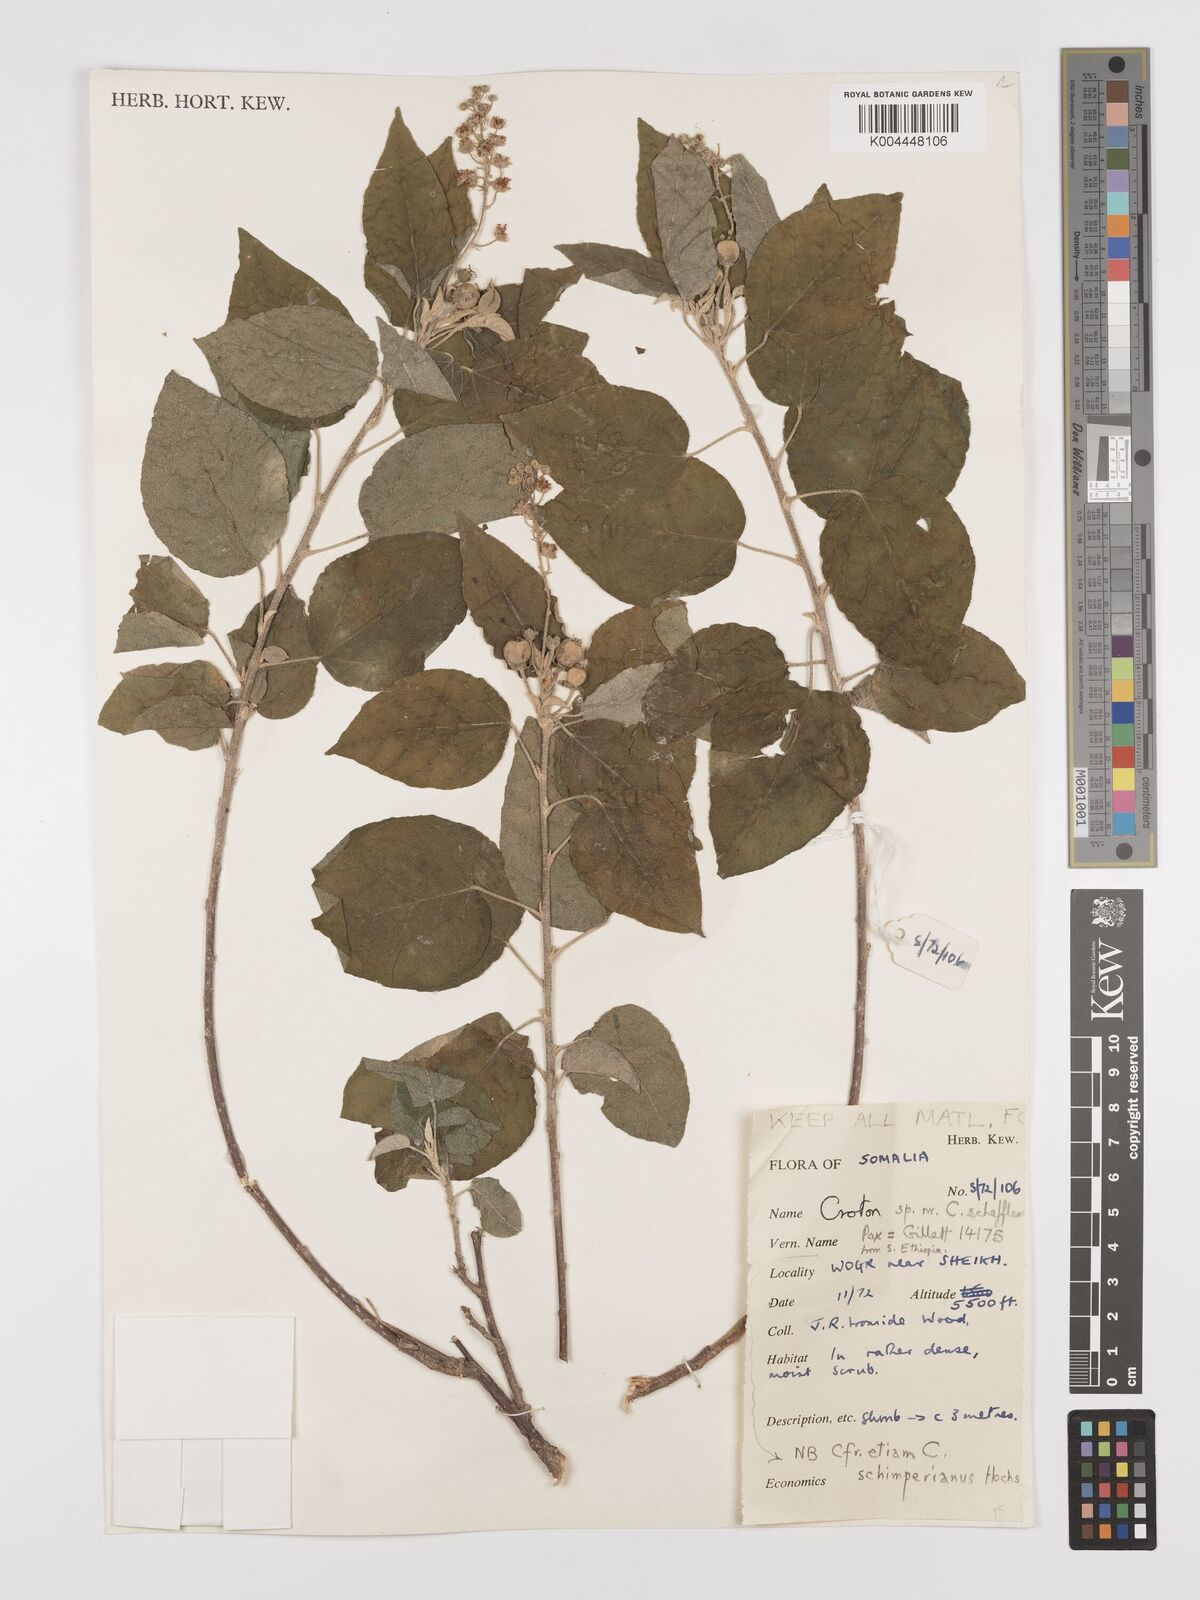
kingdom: Plantae
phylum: Tracheophyta
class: Magnoliopsida
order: Malpighiales
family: Euphorbiaceae
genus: Croton
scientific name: Croton schimperianus
